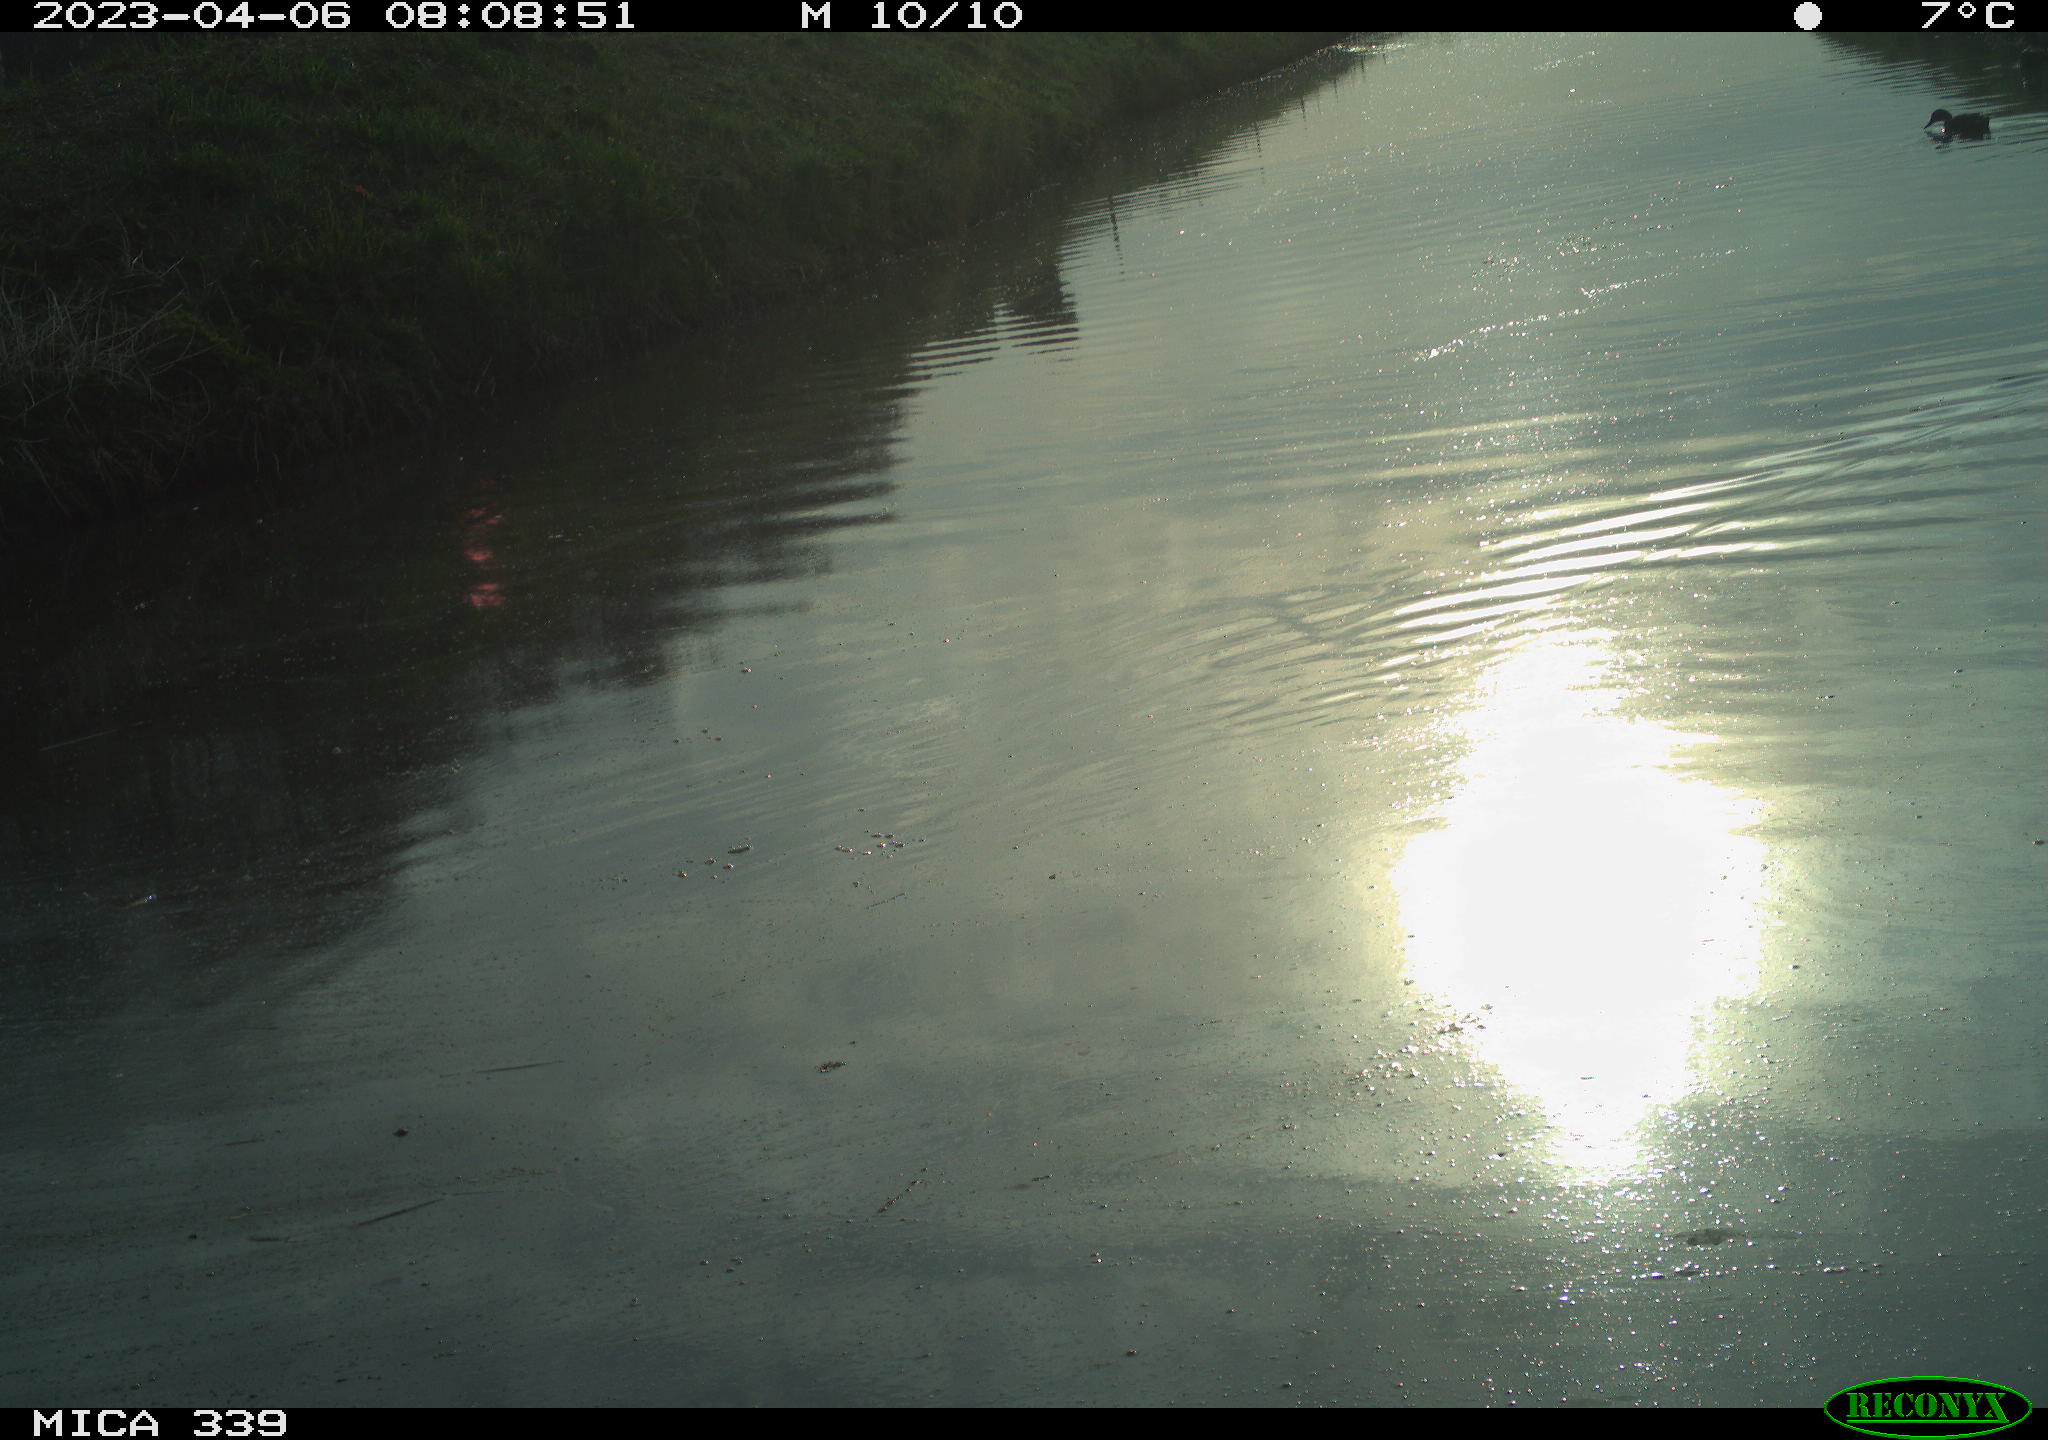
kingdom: Animalia
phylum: Chordata
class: Aves
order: Anseriformes
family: Anatidae
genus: Anas
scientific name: Anas platyrhynchos
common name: Mallard
